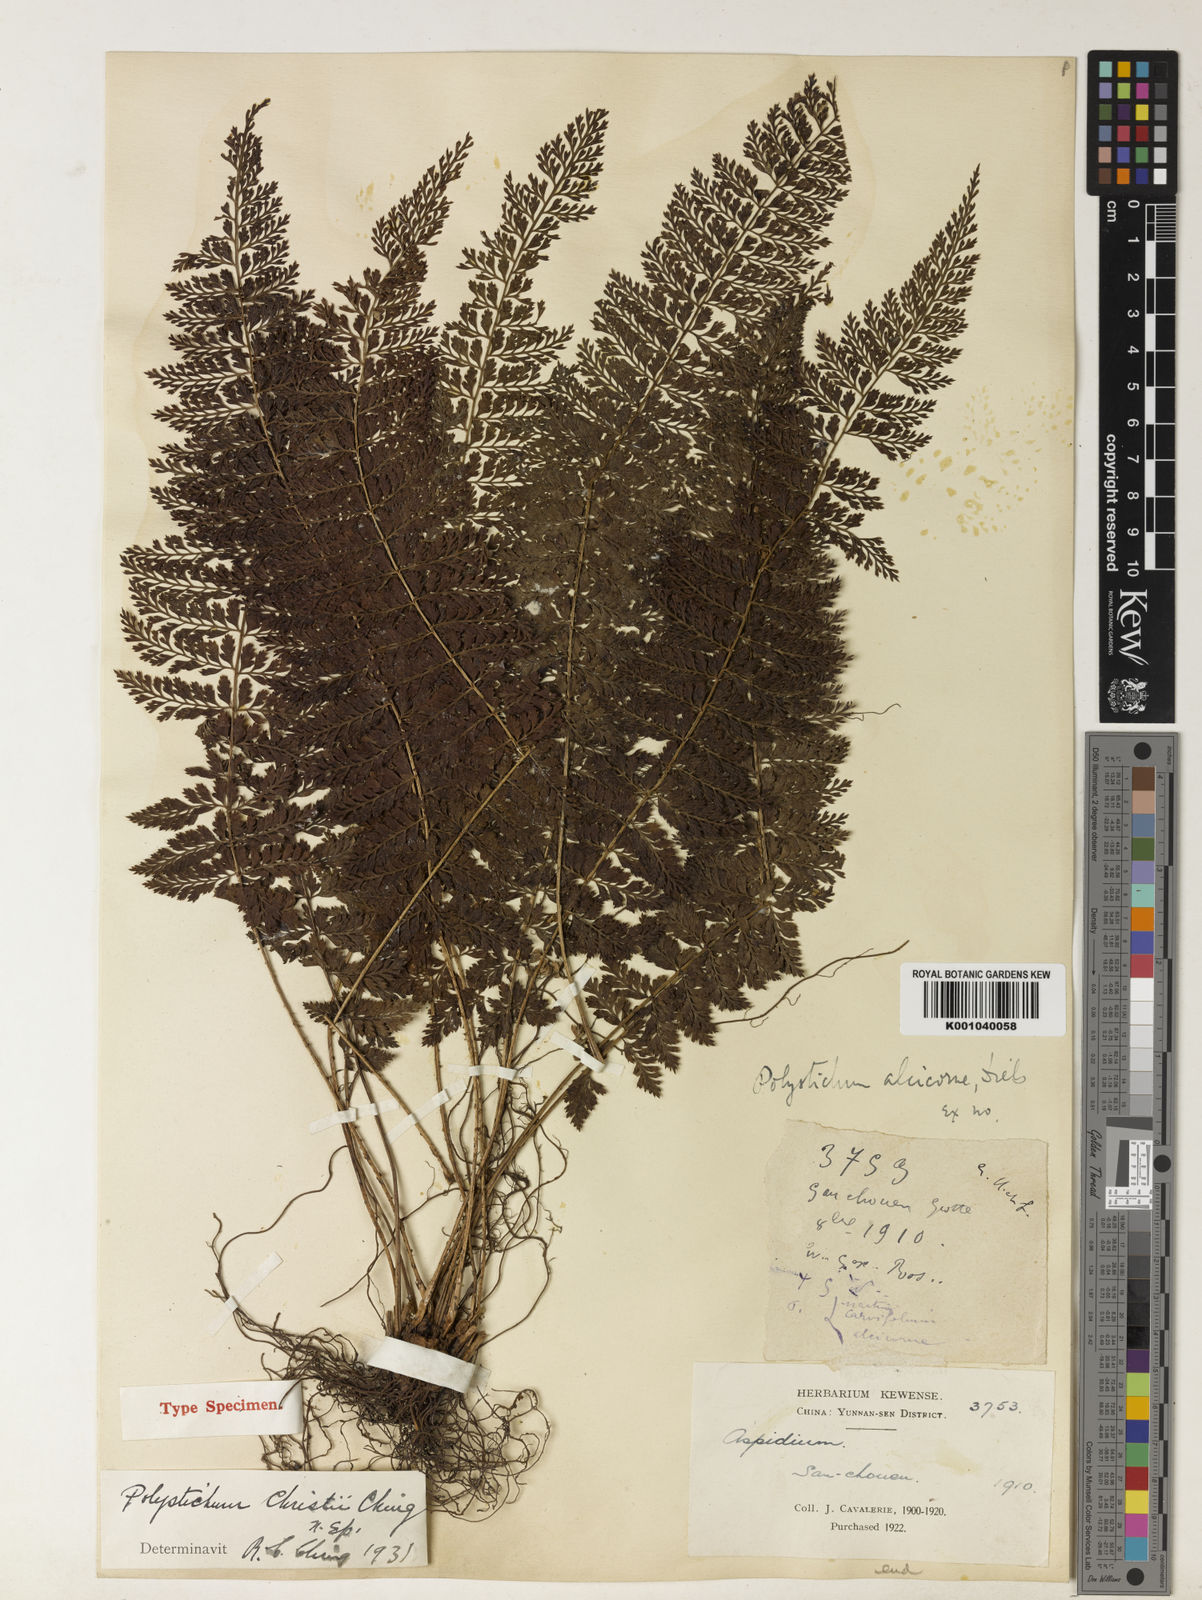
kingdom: Plantae
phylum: Tracheophyta
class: Polypodiopsida
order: Polypodiales
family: Dryopteridaceae
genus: Polystichum
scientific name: Polystichum christii
